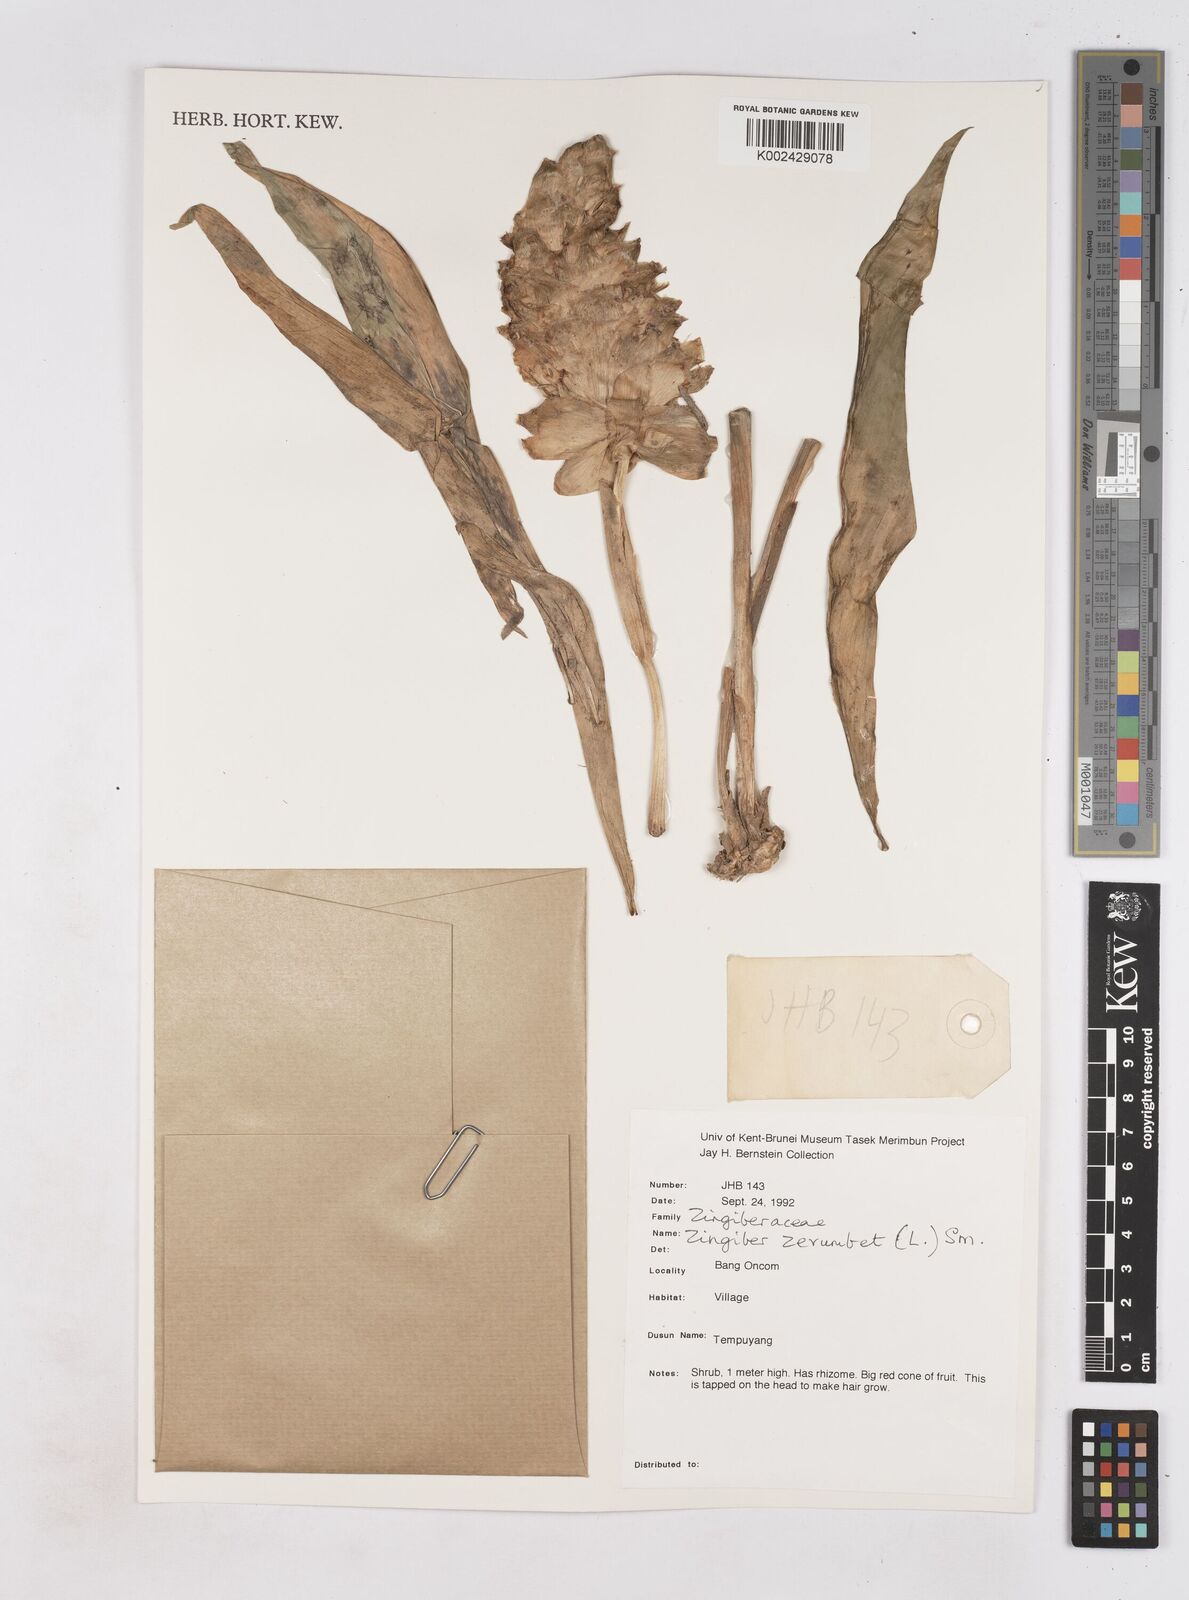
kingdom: Plantae
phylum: Tracheophyta
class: Liliopsida
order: Zingiberales
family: Zingiberaceae
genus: Zingiber
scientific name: Zingiber zerumbet
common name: Bitter ginger
